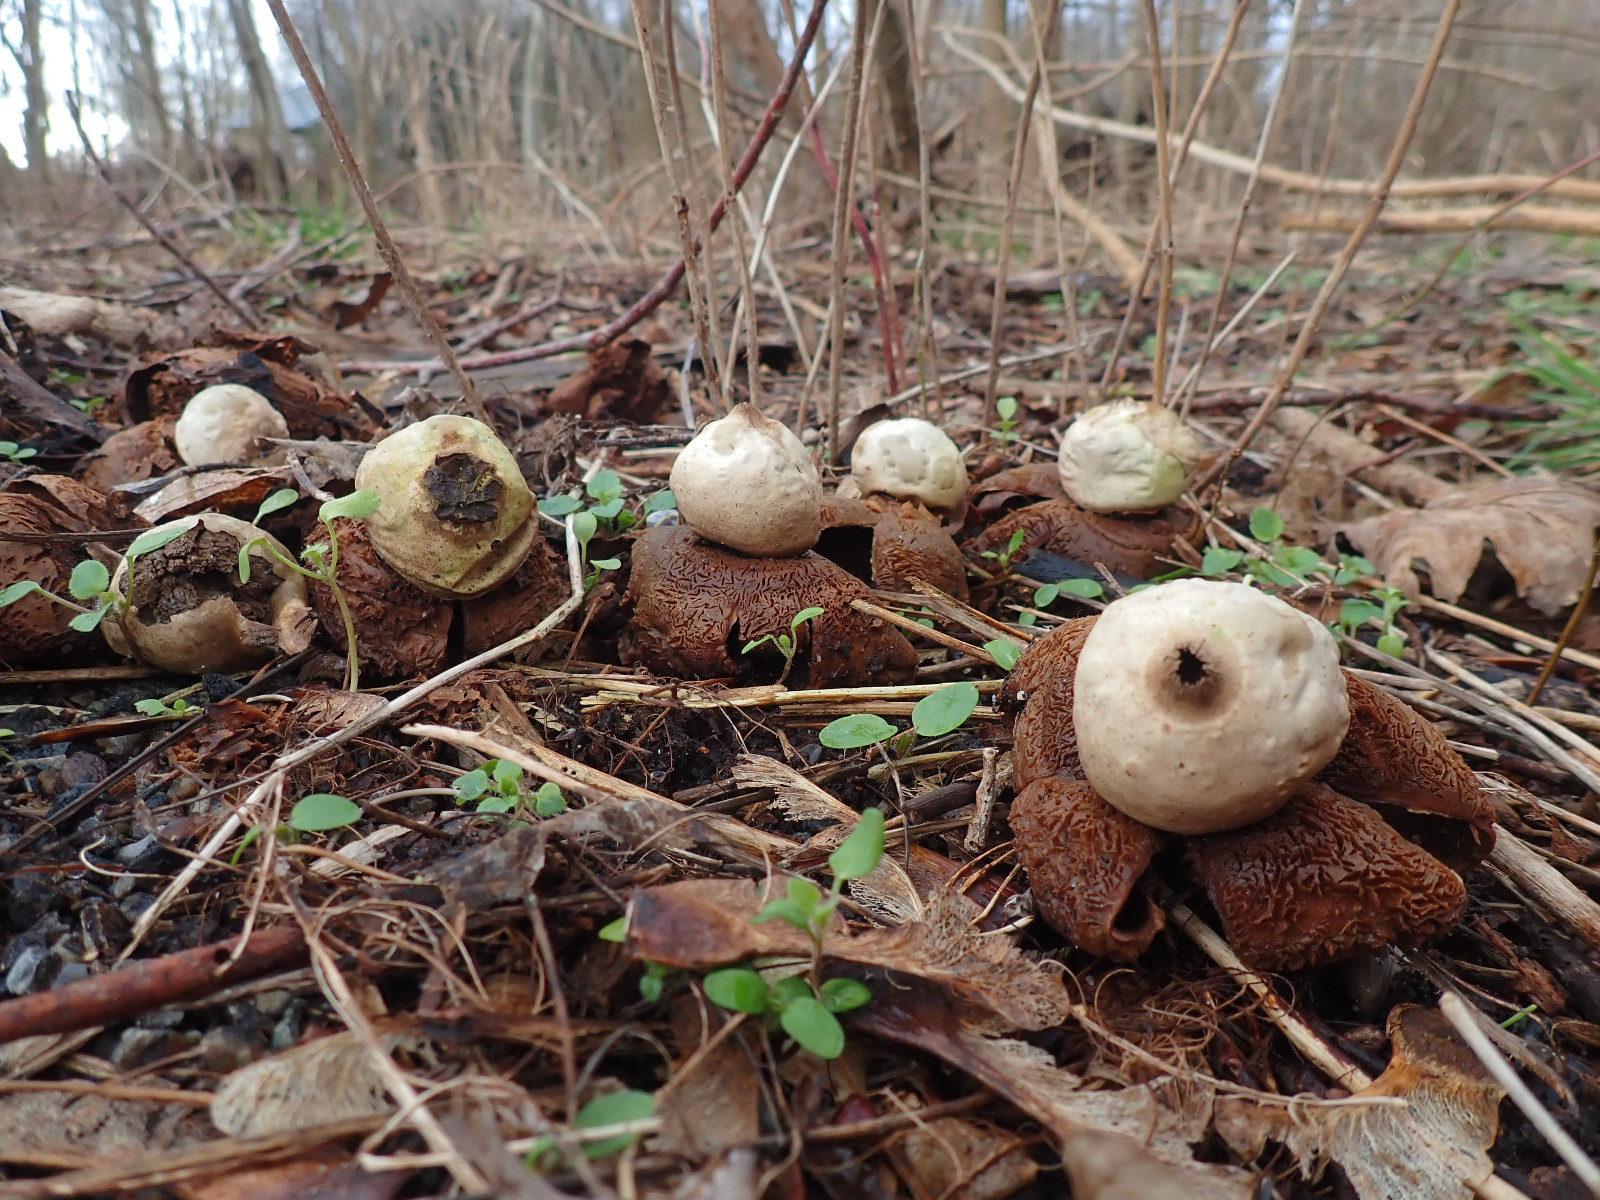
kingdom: Fungi
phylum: Basidiomycota
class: Agaricomycetes
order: Geastrales
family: Geastraceae
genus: Geastrum
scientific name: Geastrum michelianum
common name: kødet stjernebold
